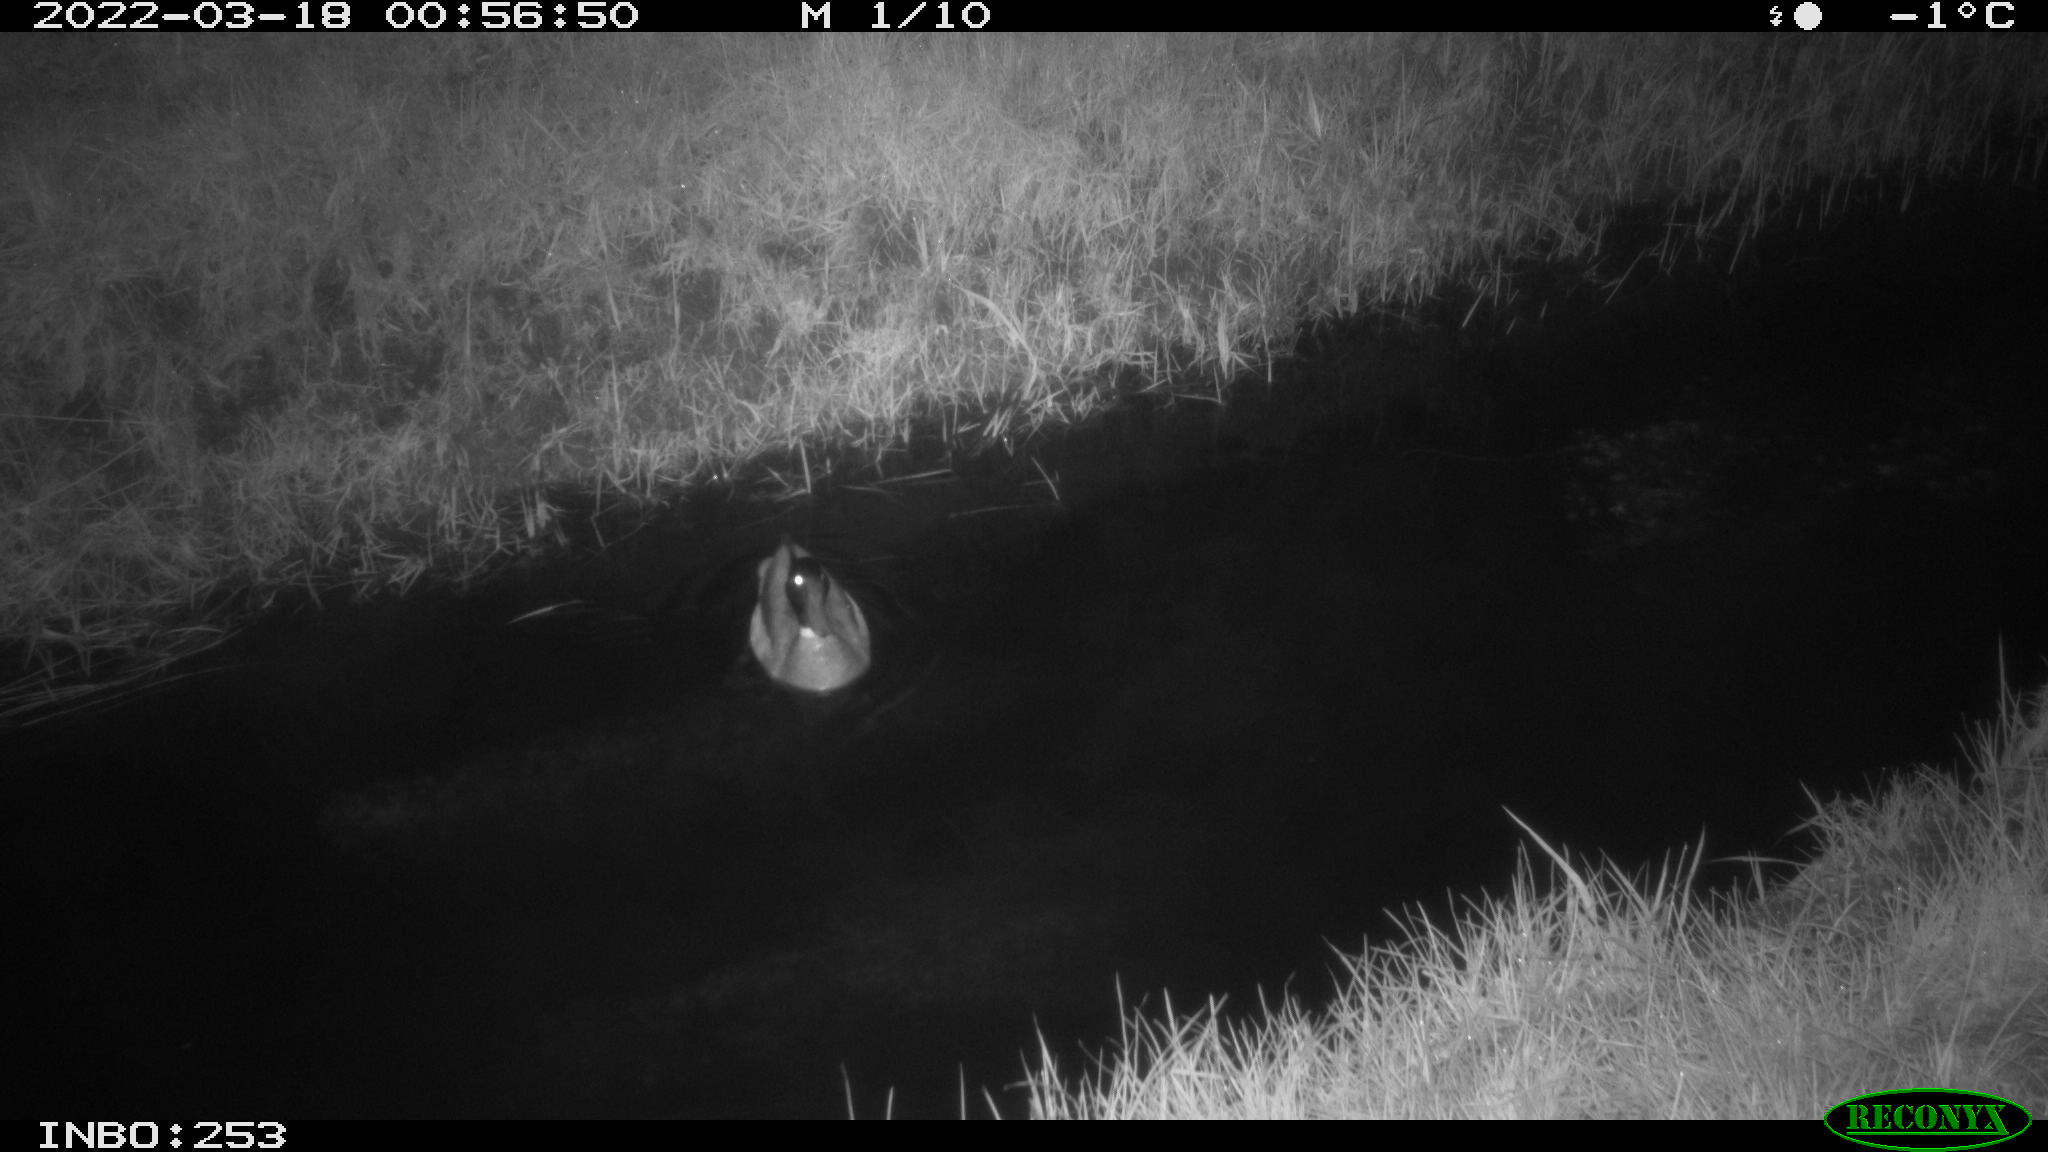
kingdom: Animalia
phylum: Chordata
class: Aves
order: Anseriformes
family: Anatidae
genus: Anas
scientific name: Anas platyrhynchos
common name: Mallard
